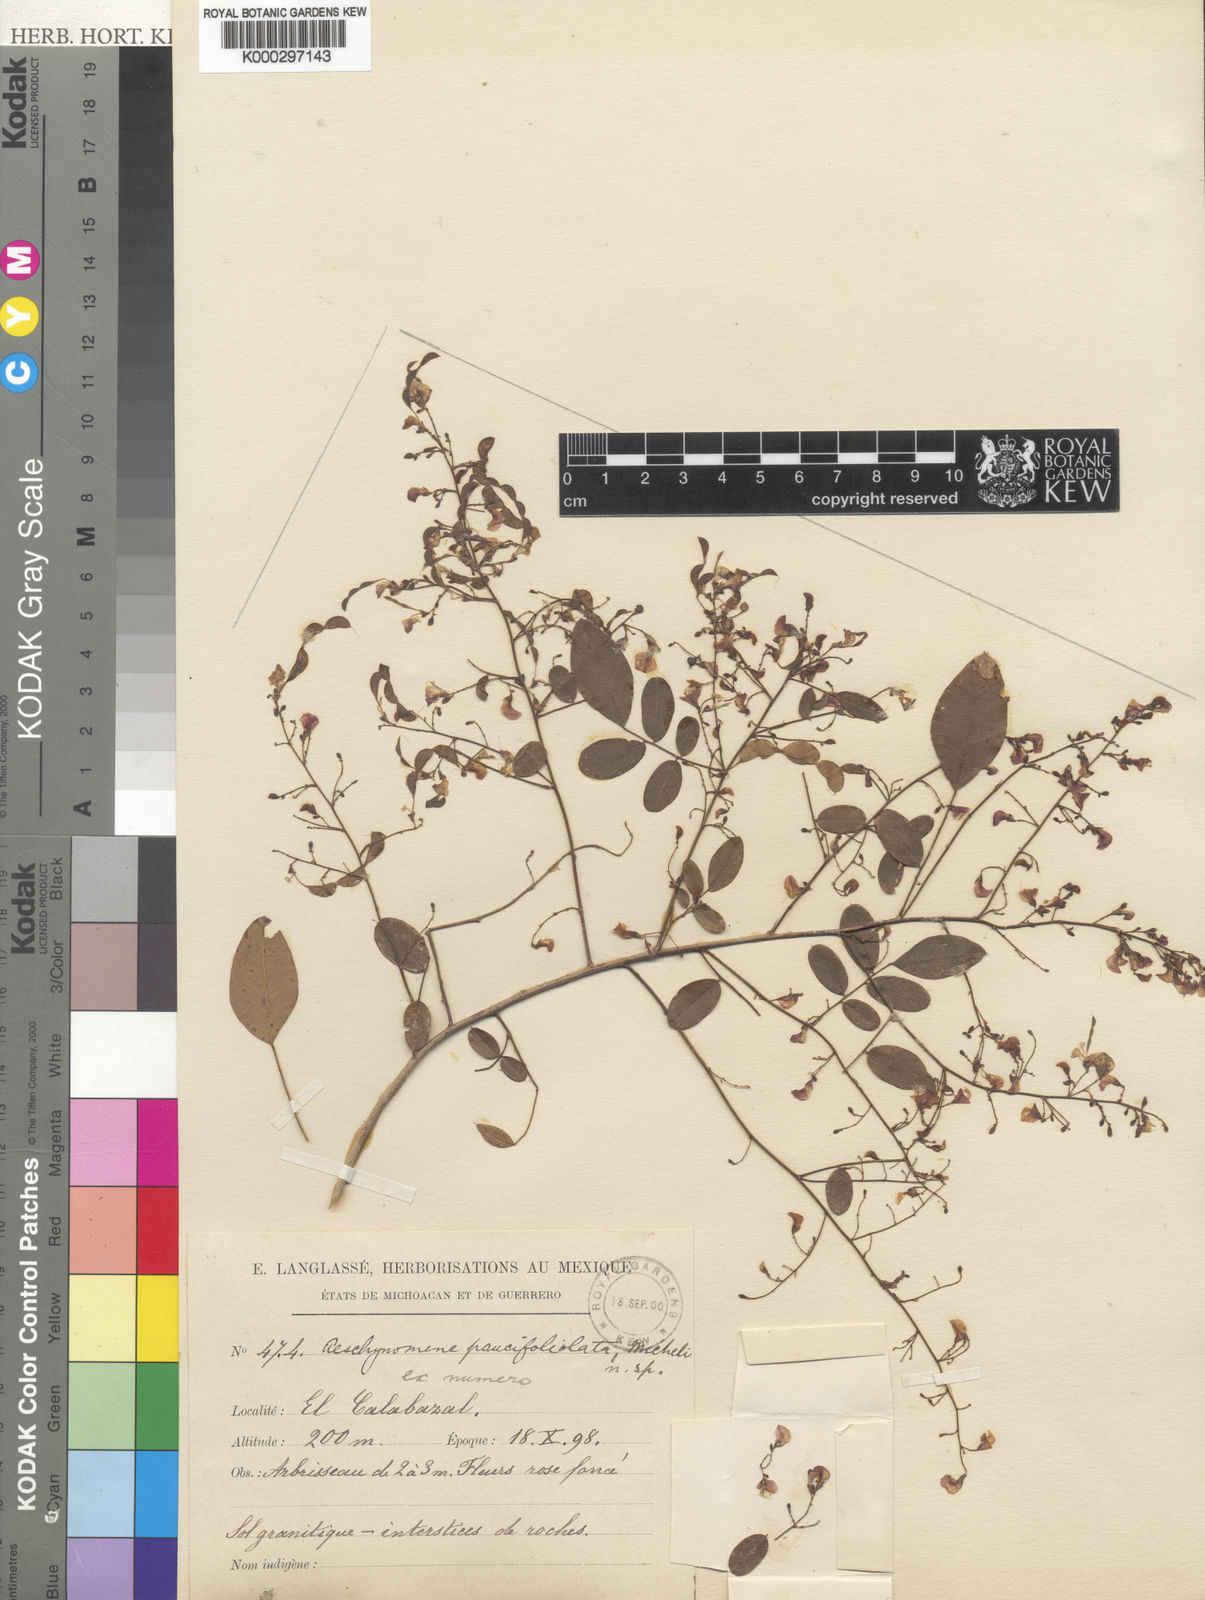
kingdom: Plantae
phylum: Tracheophyta
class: Magnoliopsida
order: Fabales
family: Fabaceae
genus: Ctenodon
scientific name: Ctenodon paucifoliolatus
